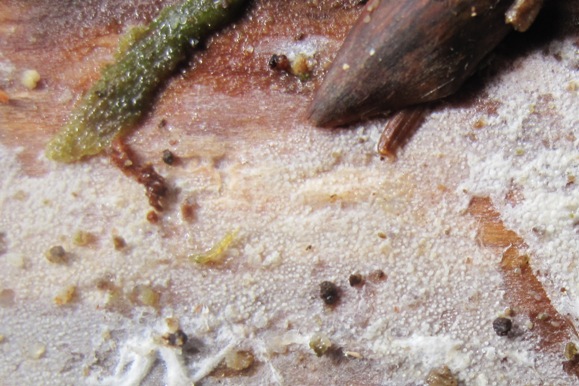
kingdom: Fungi
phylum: Basidiomycota
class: Agaricomycetes
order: Hymenochaetales
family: Rickenellaceae
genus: Resinicium
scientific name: Resinicium bicolor
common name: almindelig vokstand
